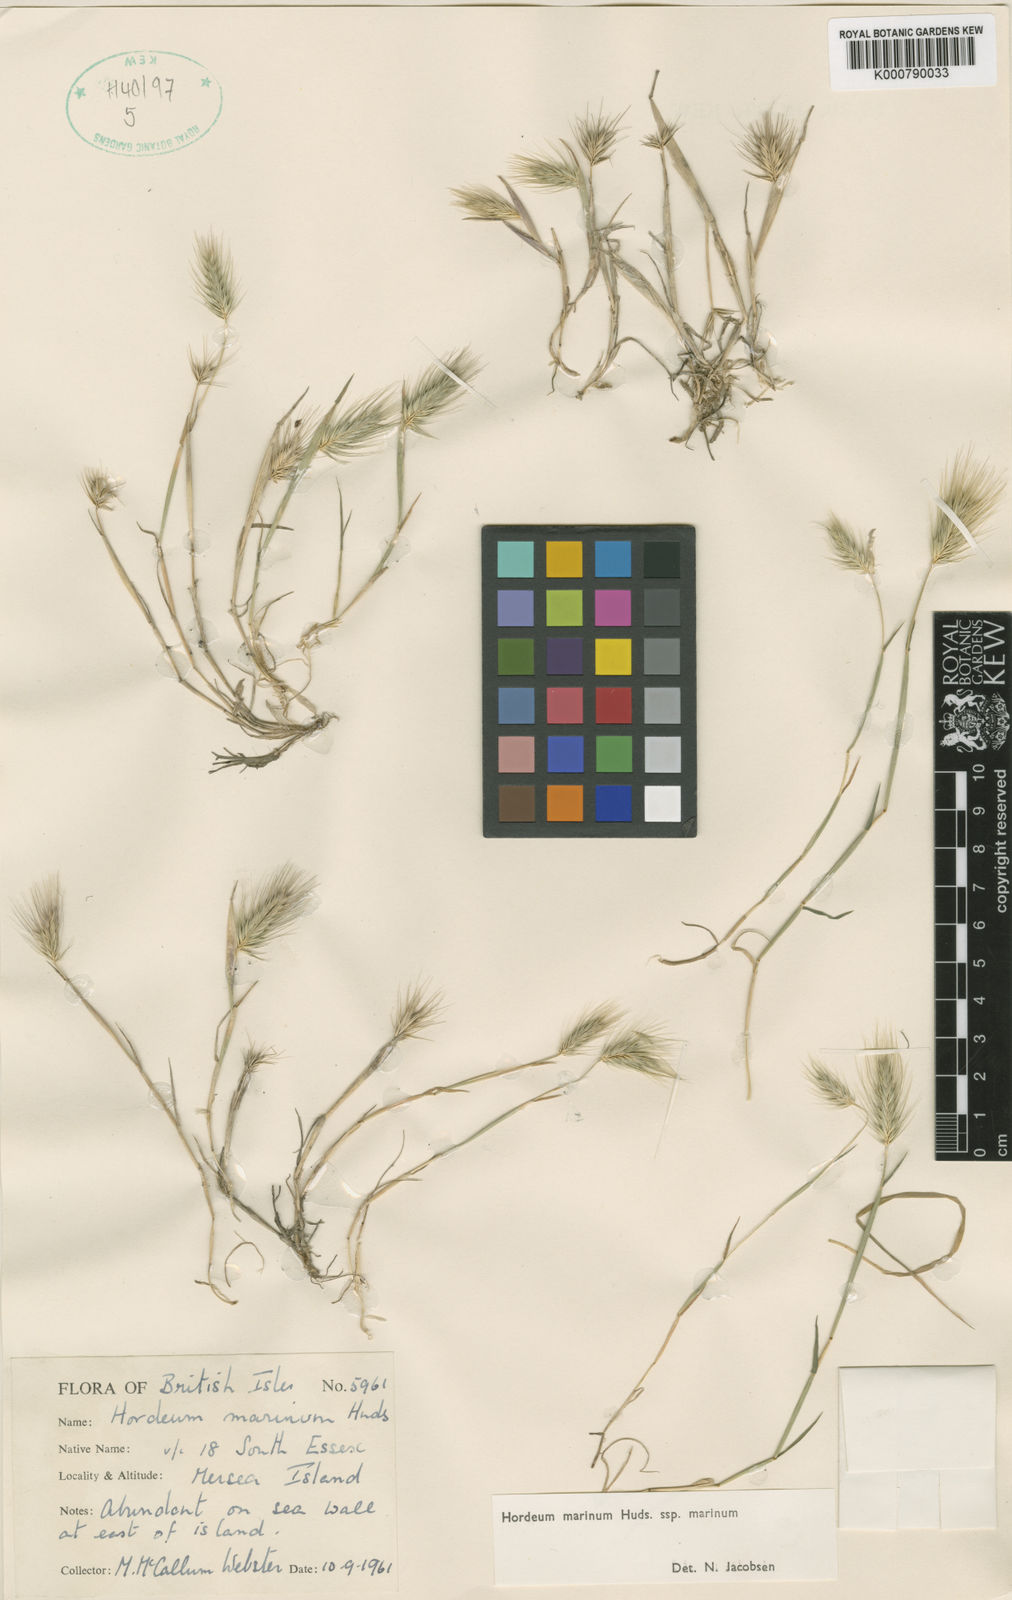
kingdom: Plantae
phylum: Tracheophyta
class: Liliopsida
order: Poales
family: Poaceae
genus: Hordeum
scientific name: Hordeum marinum
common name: Sea barley
